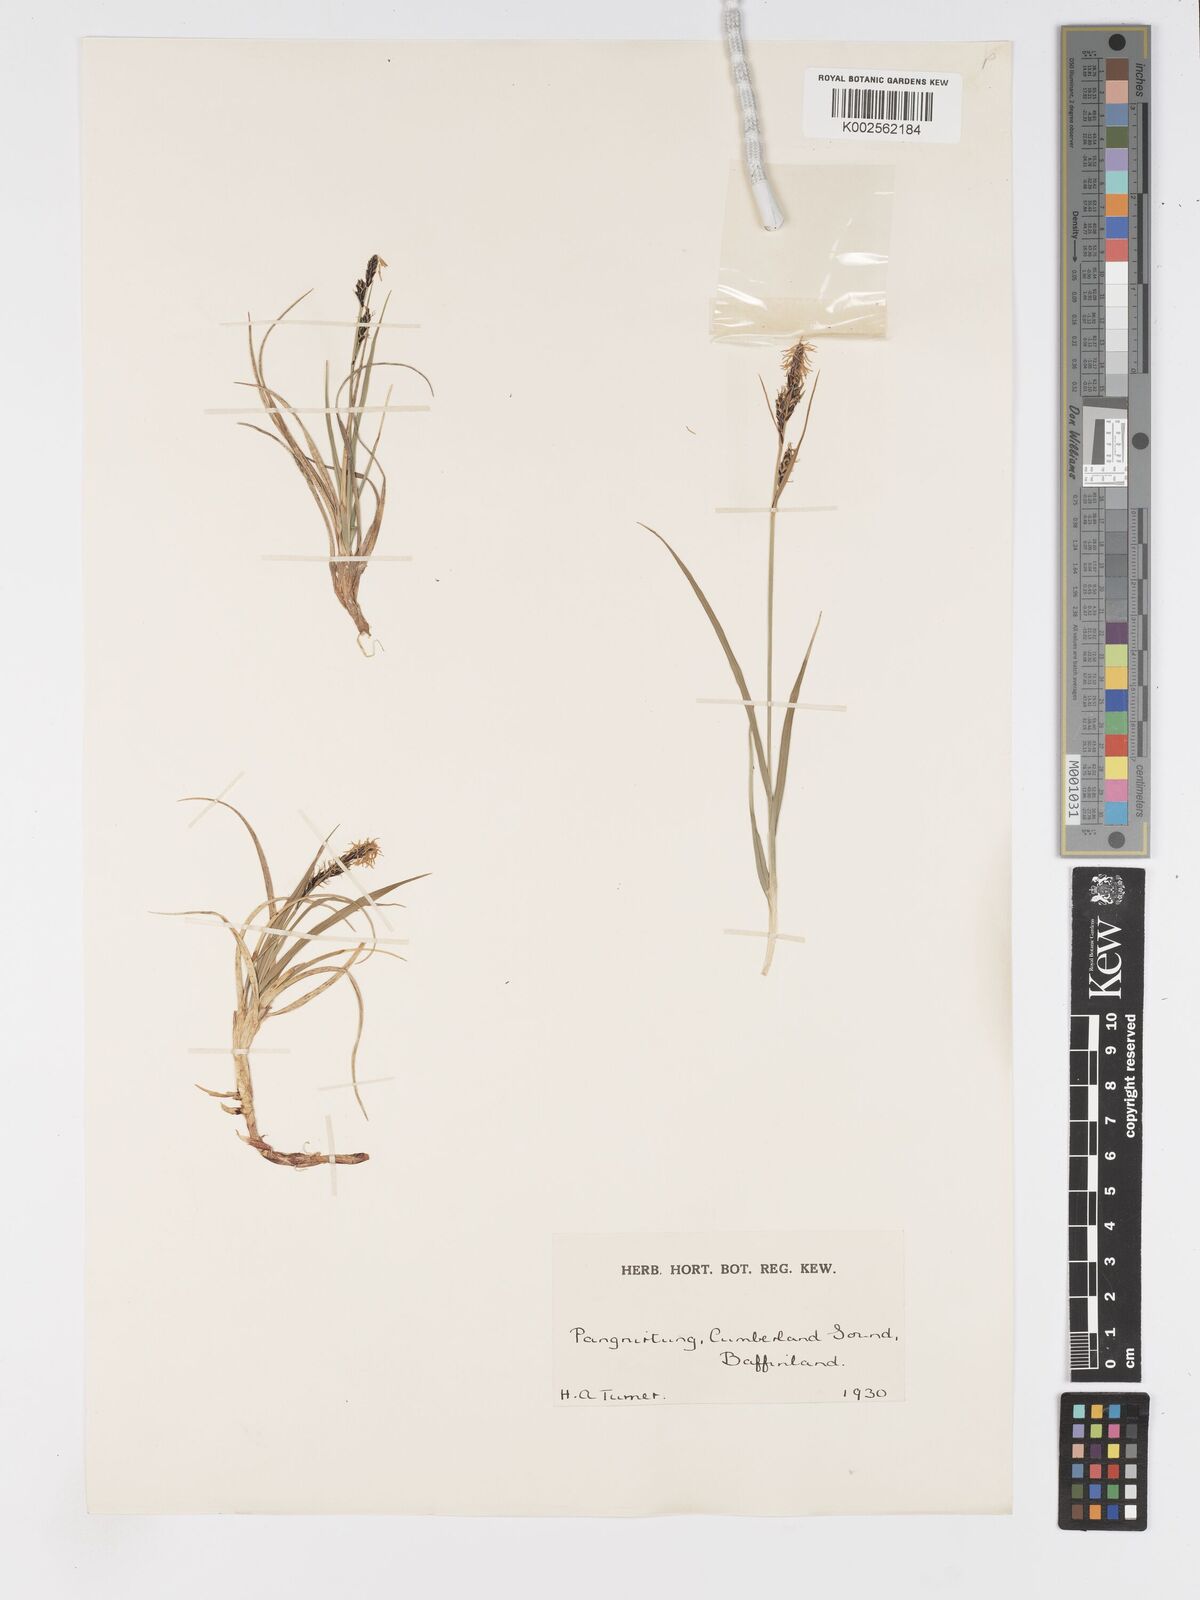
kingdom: Plantae
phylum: Tracheophyta
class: Liliopsida
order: Poales
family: Cyperaceae
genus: Carex
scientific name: Carex nigra
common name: Common sedge
